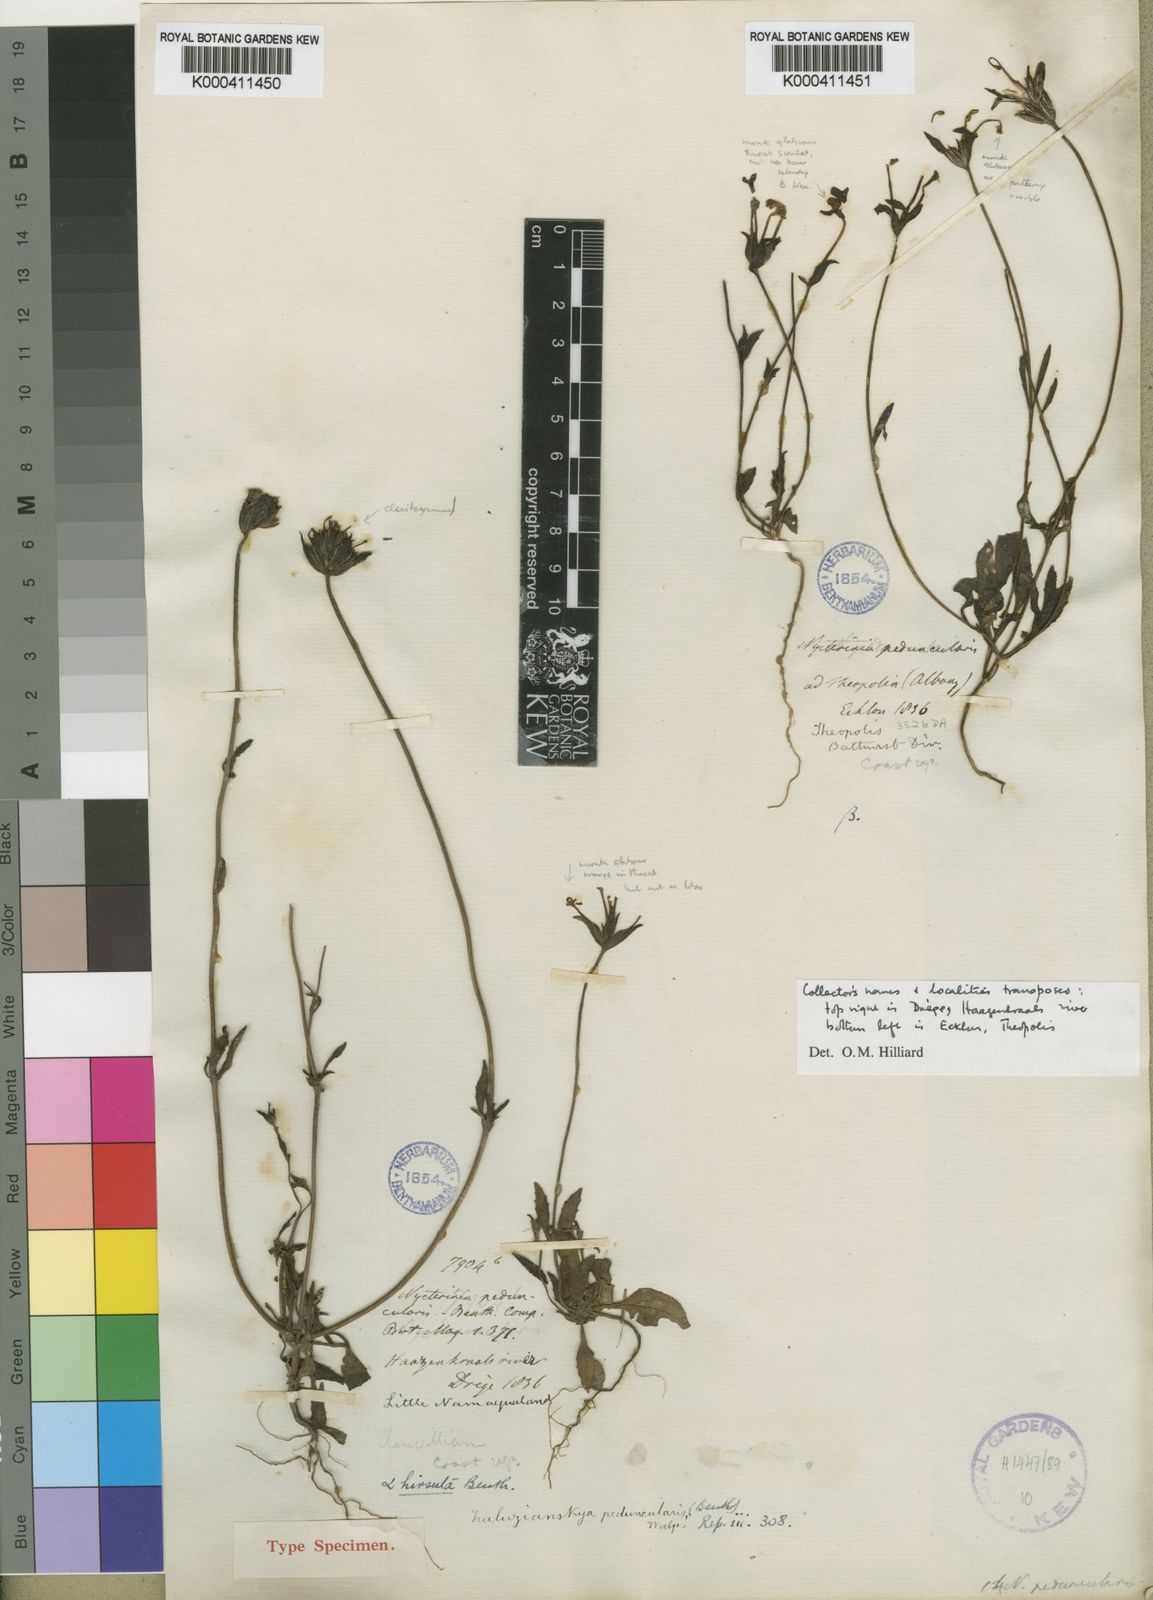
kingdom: Plantae
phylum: Tracheophyta
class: Magnoliopsida
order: Lamiales
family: Scrophulariaceae
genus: Zaluzianskya
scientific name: Zaluzianskya peduncularis
